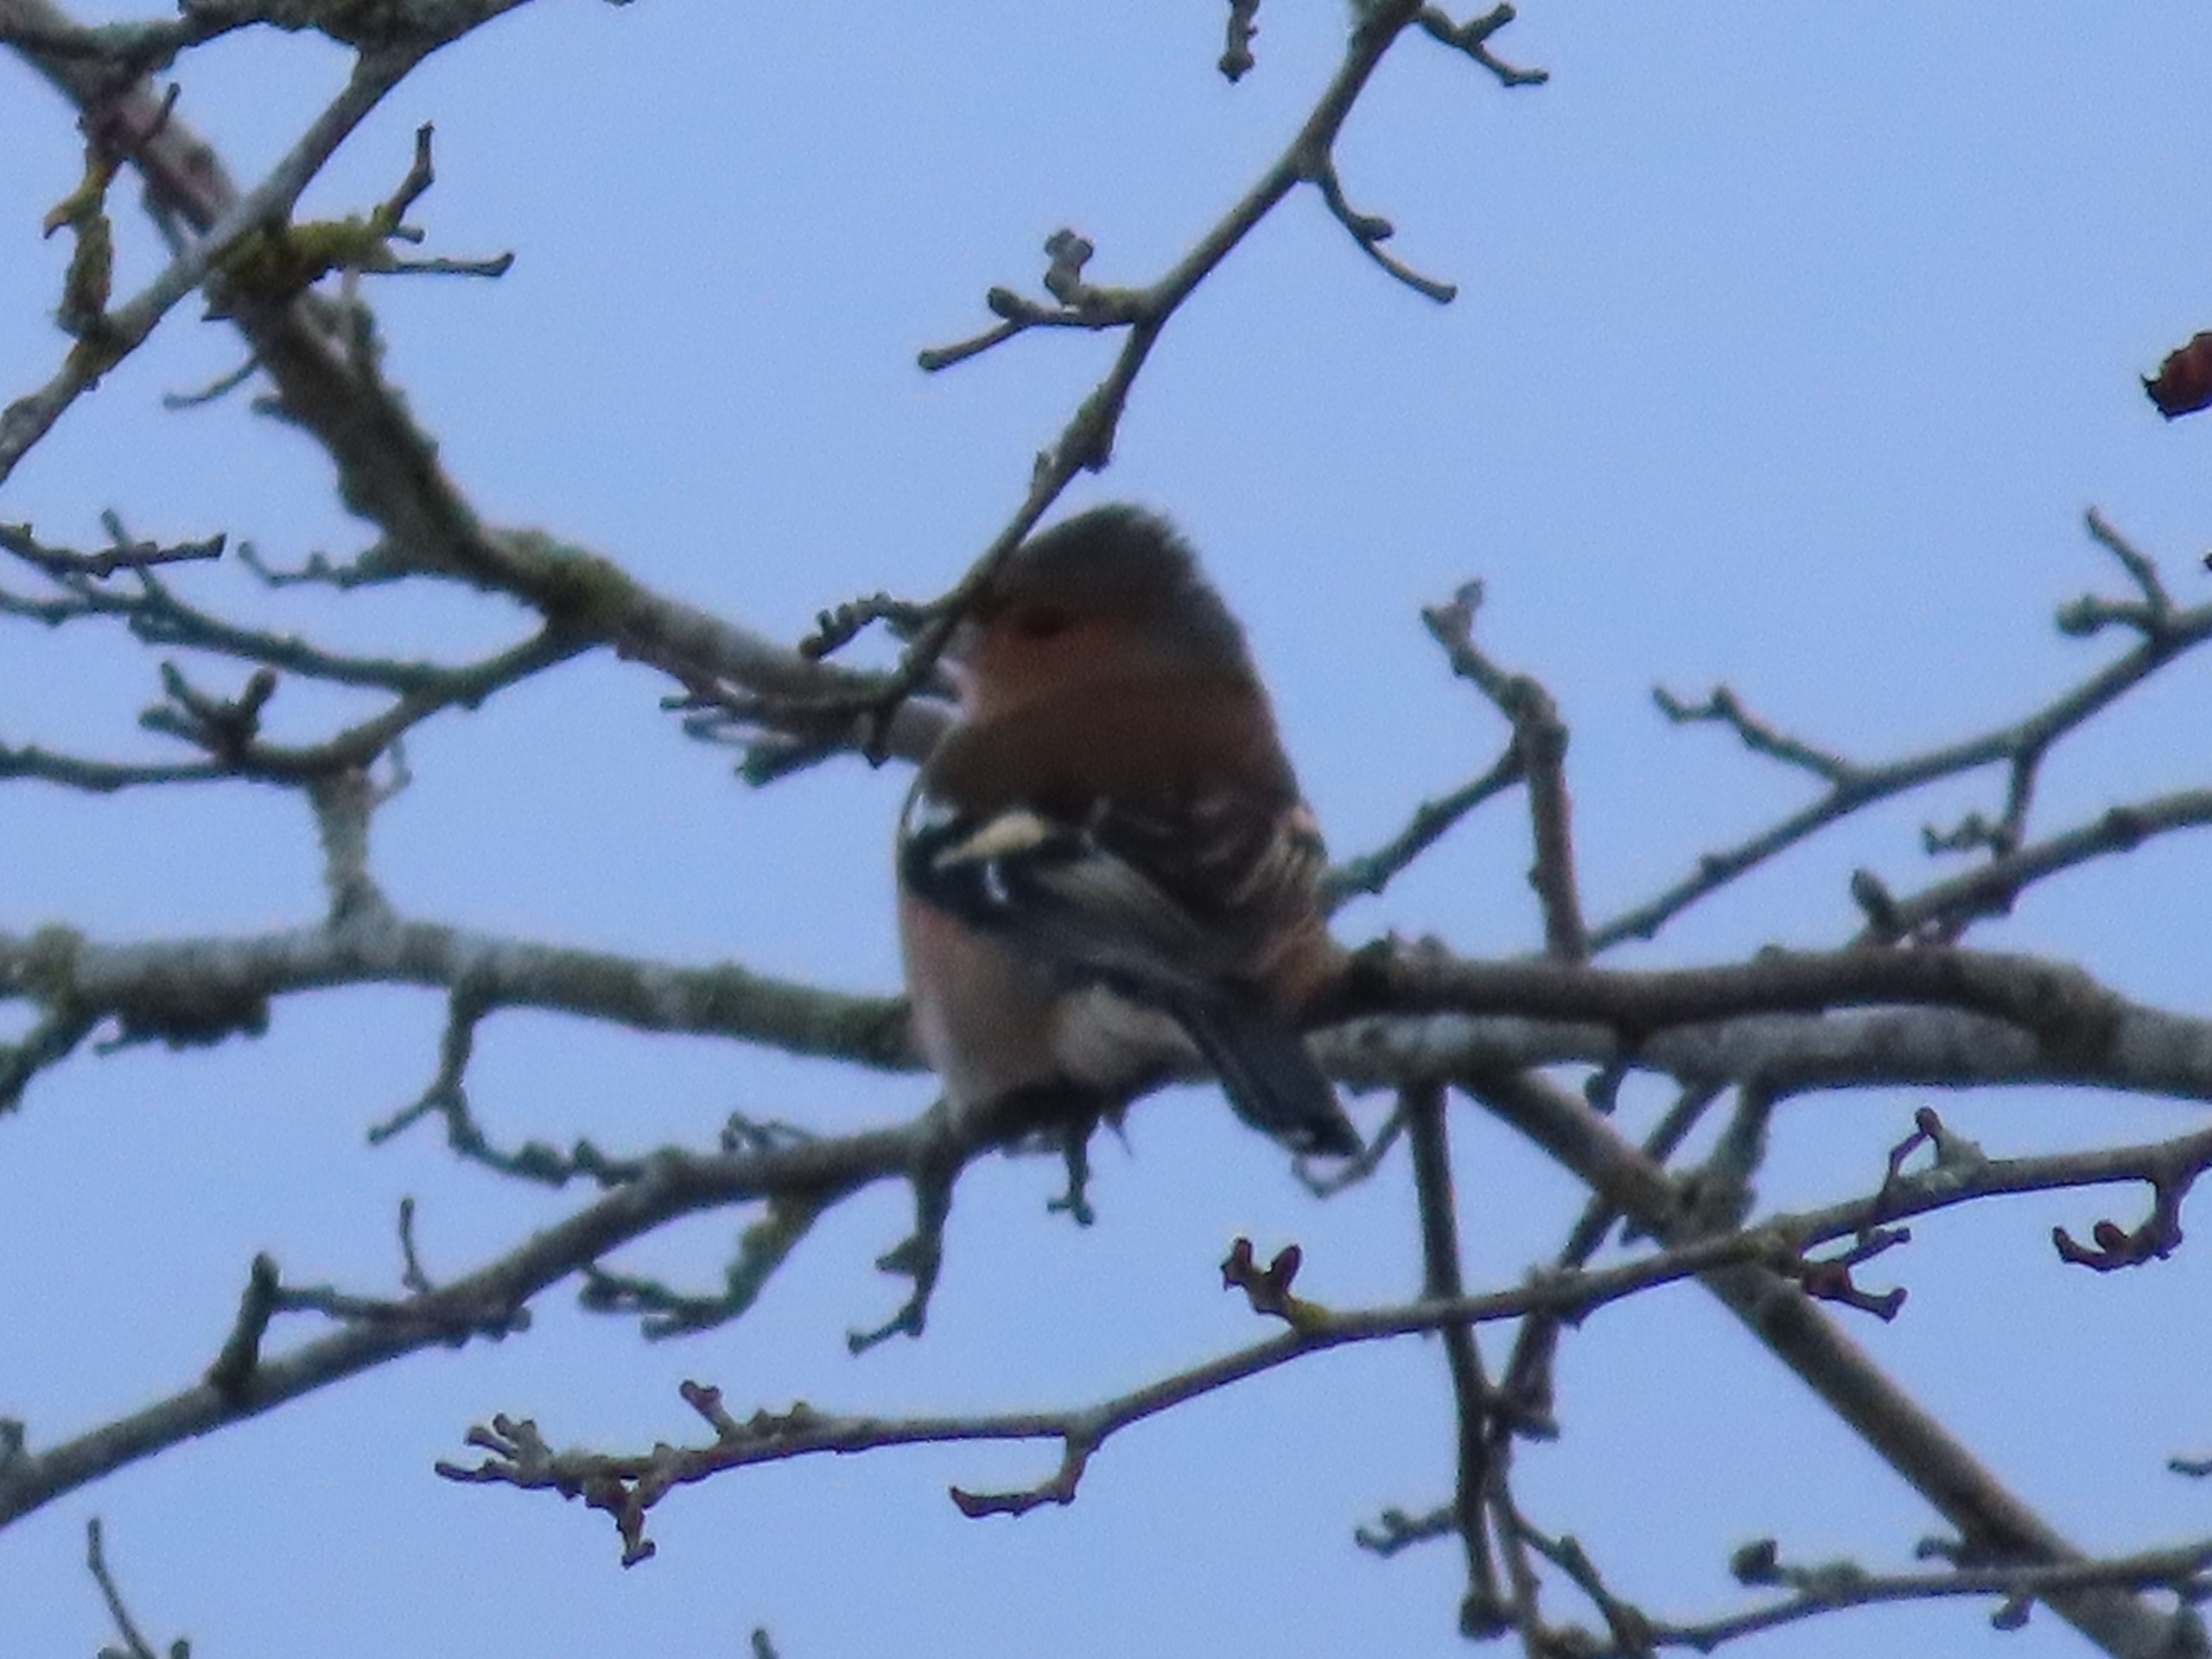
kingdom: Animalia
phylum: Chordata
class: Aves
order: Passeriformes
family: Fringillidae
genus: Fringilla
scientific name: Fringilla coelebs
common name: Bogfinke
